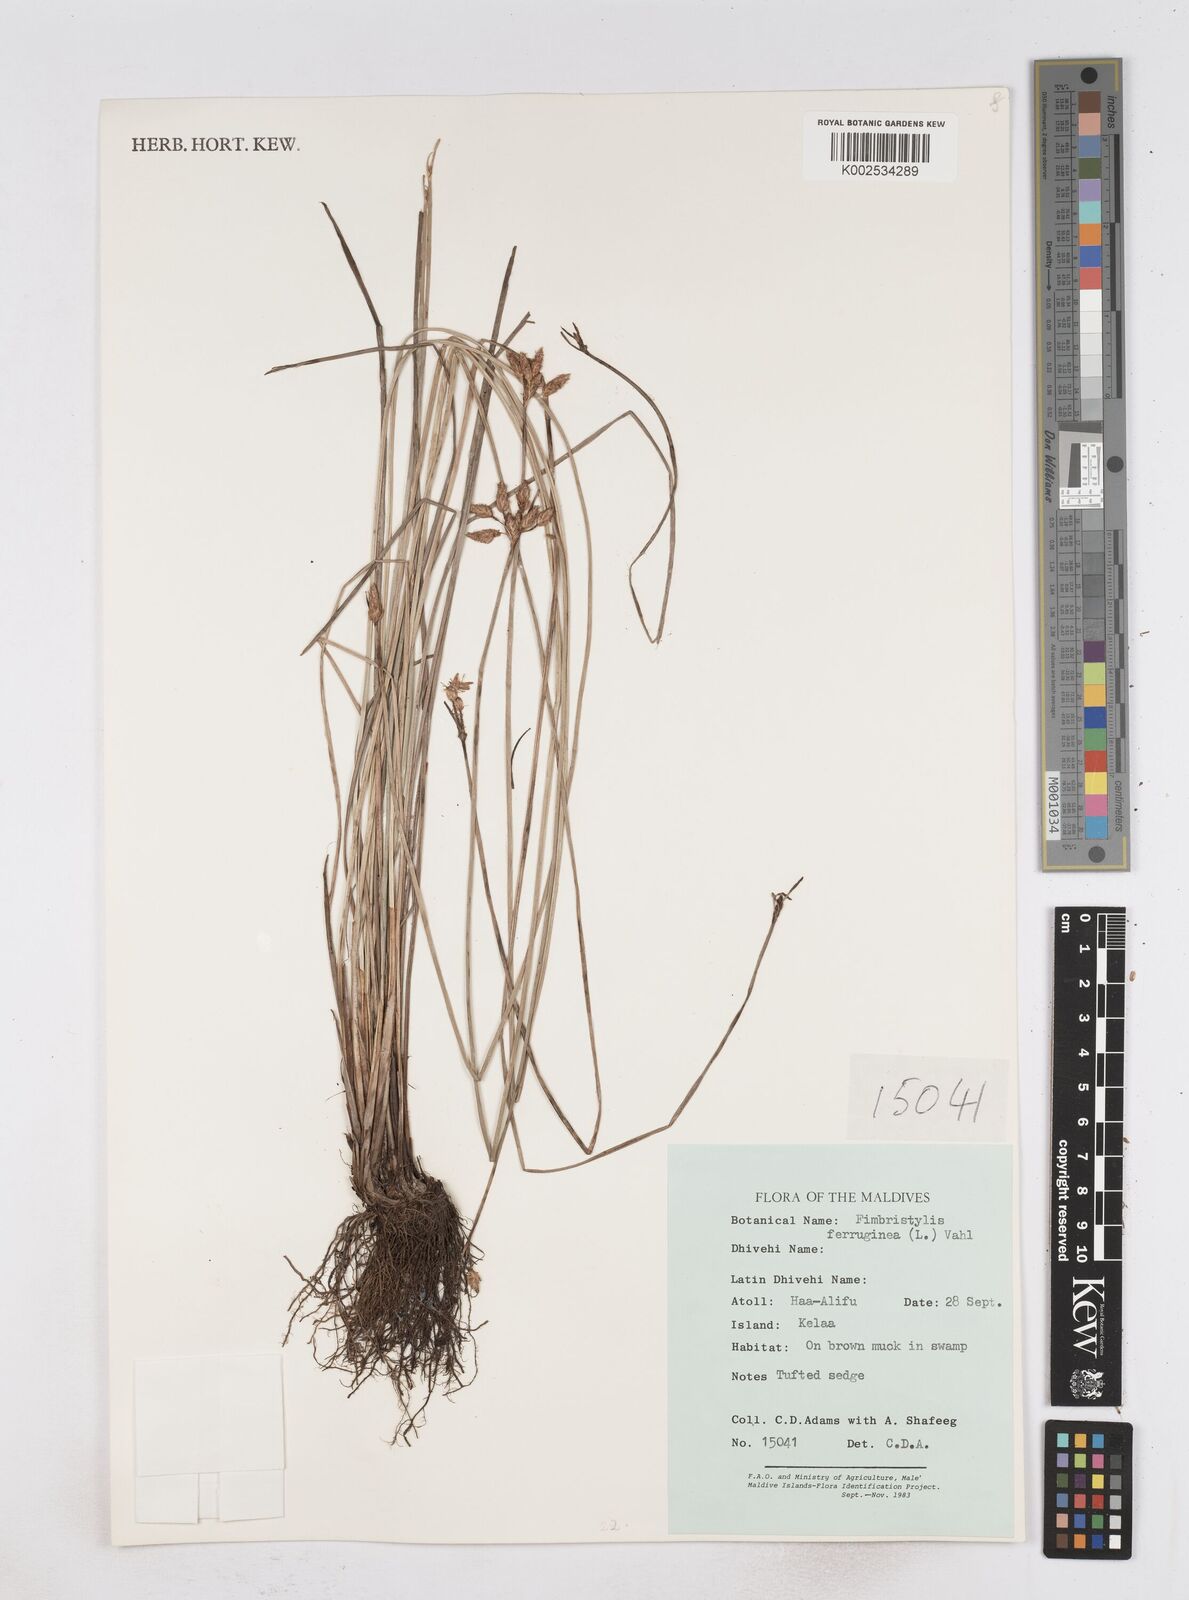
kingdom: Plantae
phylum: Tracheophyta
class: Liliopsida
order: Poales
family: Cyperaceae
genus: Fimbristylis
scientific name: Fimbristylis ferruginea
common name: West indian fimbry
